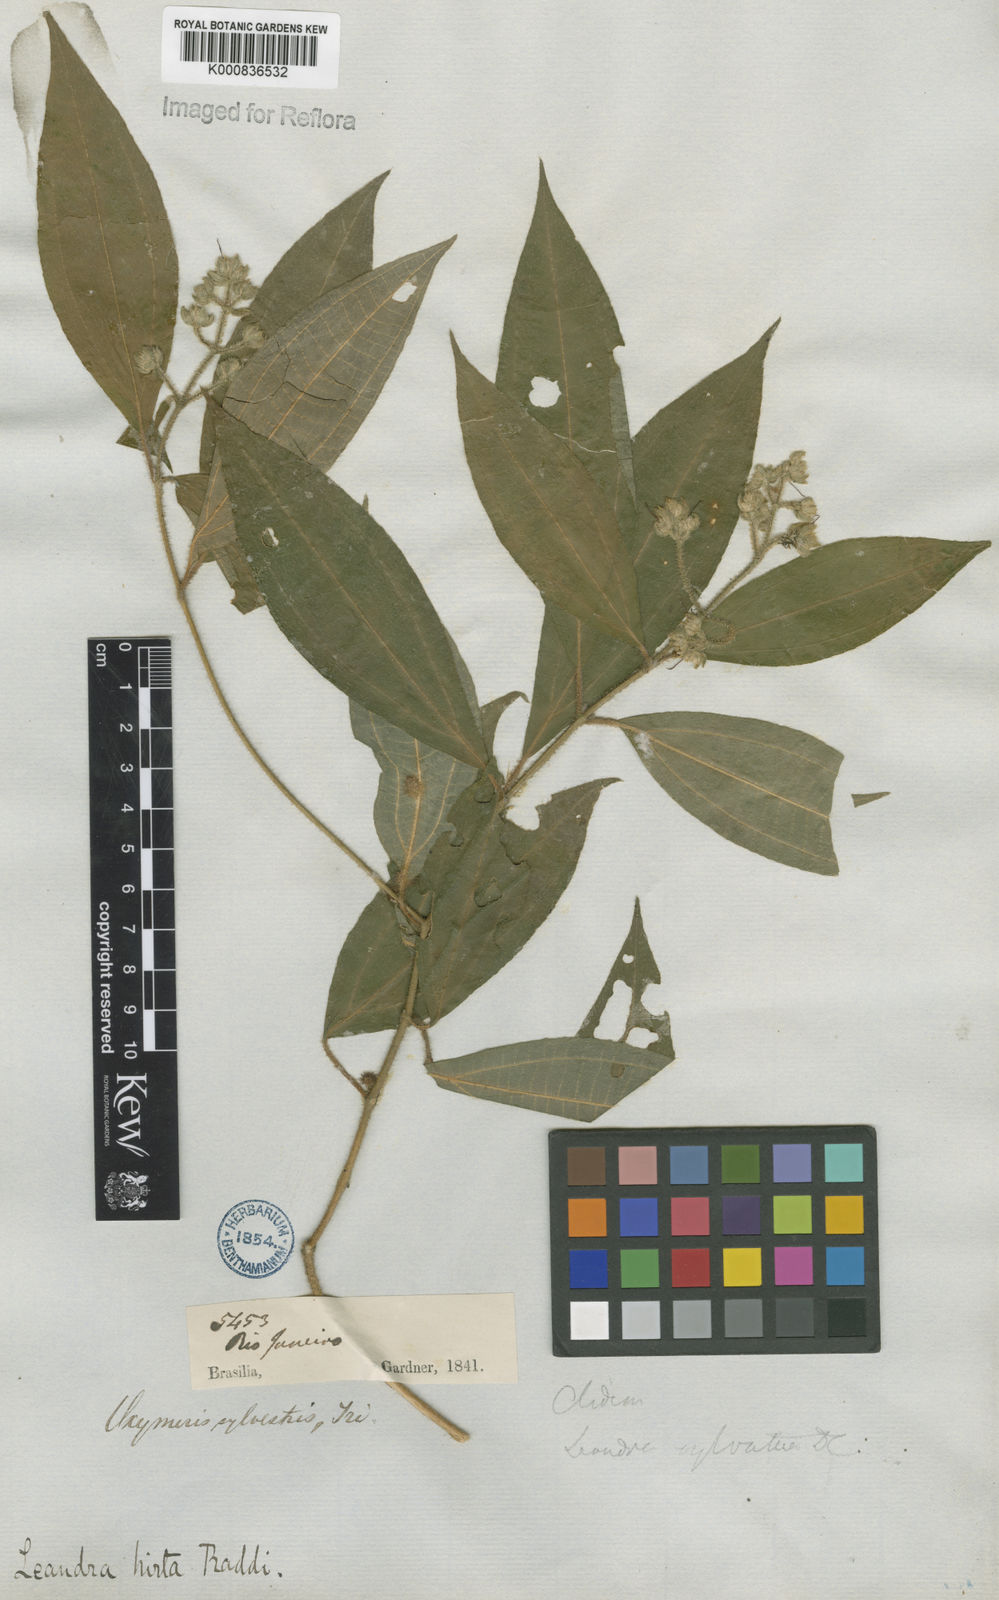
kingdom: Plantae
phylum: Tracheophyta
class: Magnoliopsida
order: Myrtales
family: Melastomataceae
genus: Miconia
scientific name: Miconia dubia
